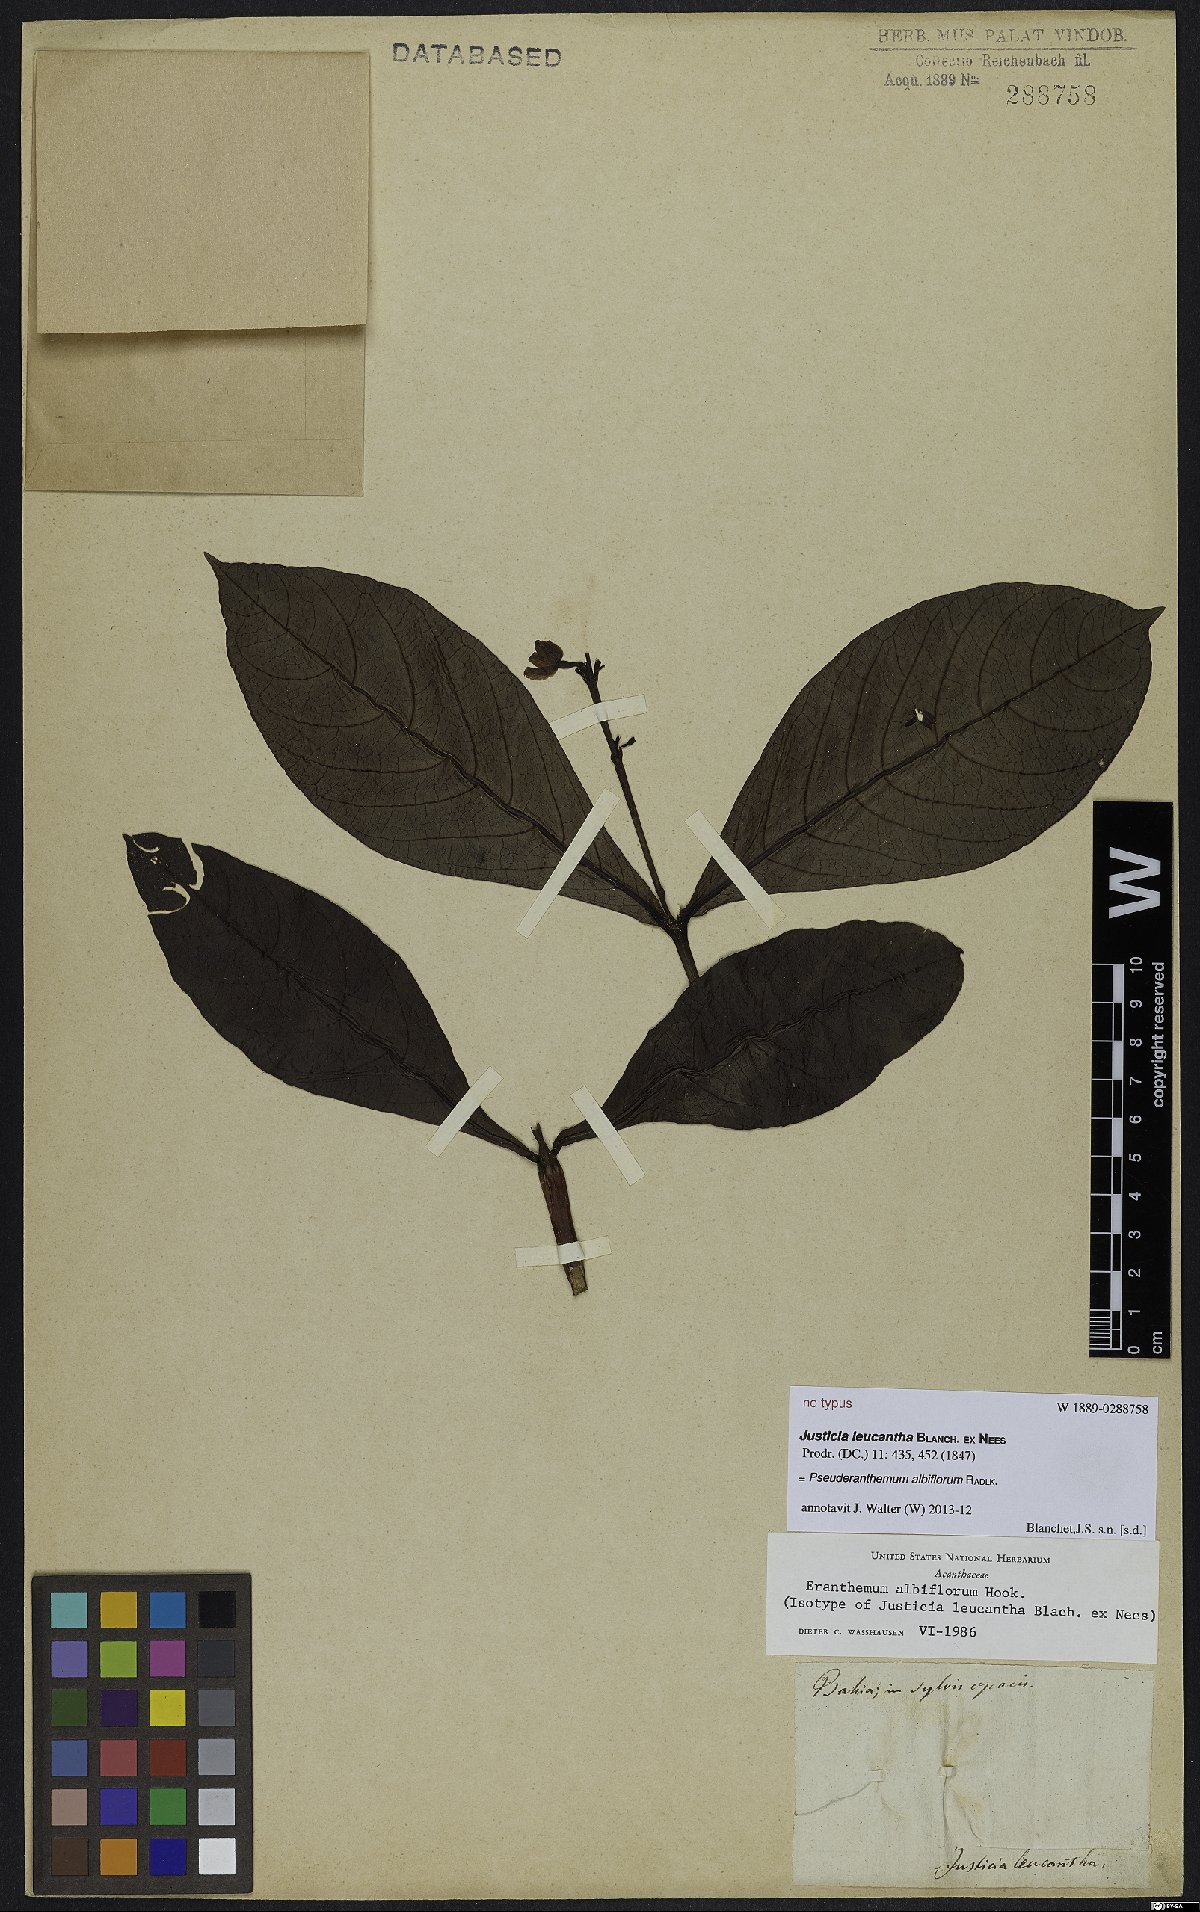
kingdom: Plantae
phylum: Tracheophyta
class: Magnoliopsida
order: Lamiales
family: Acanthaceae
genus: Pseuderanthemum
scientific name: Pseuderanthemum albiflorum
